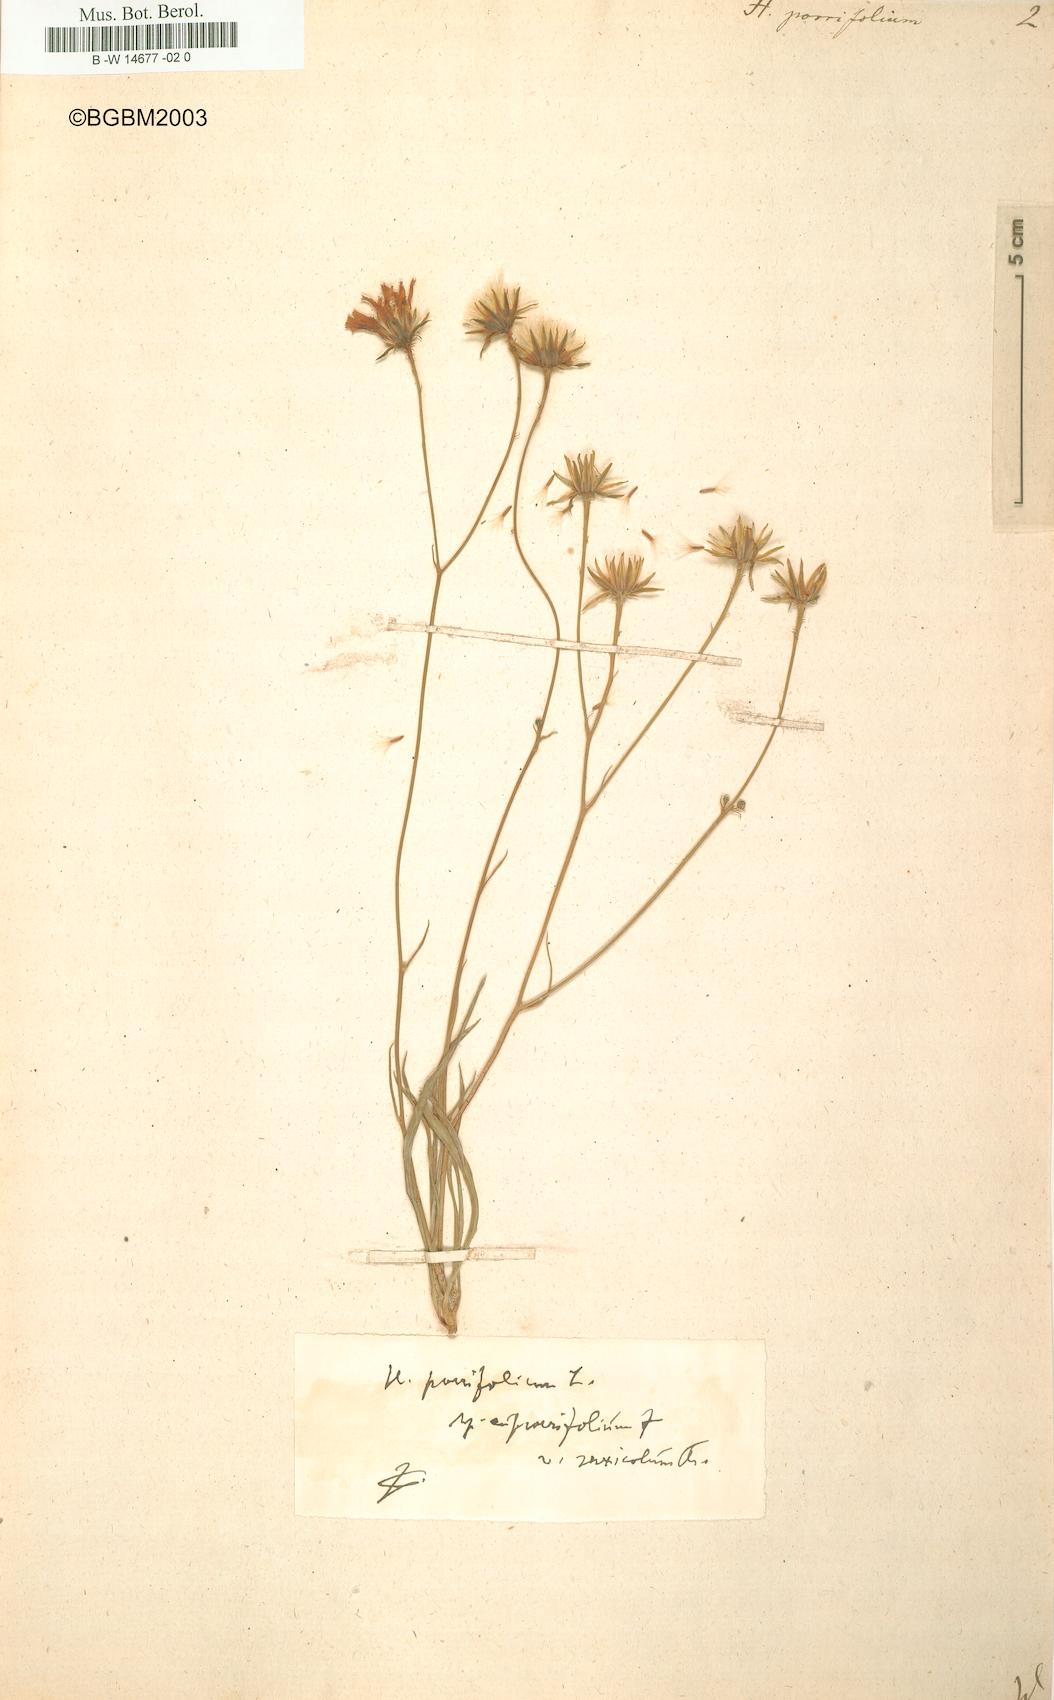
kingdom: Plantae
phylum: Tracheophyta
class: Magnoliopsida
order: Asterales
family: Asteraceae
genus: Hieracium
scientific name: Hieracium porrifolium
